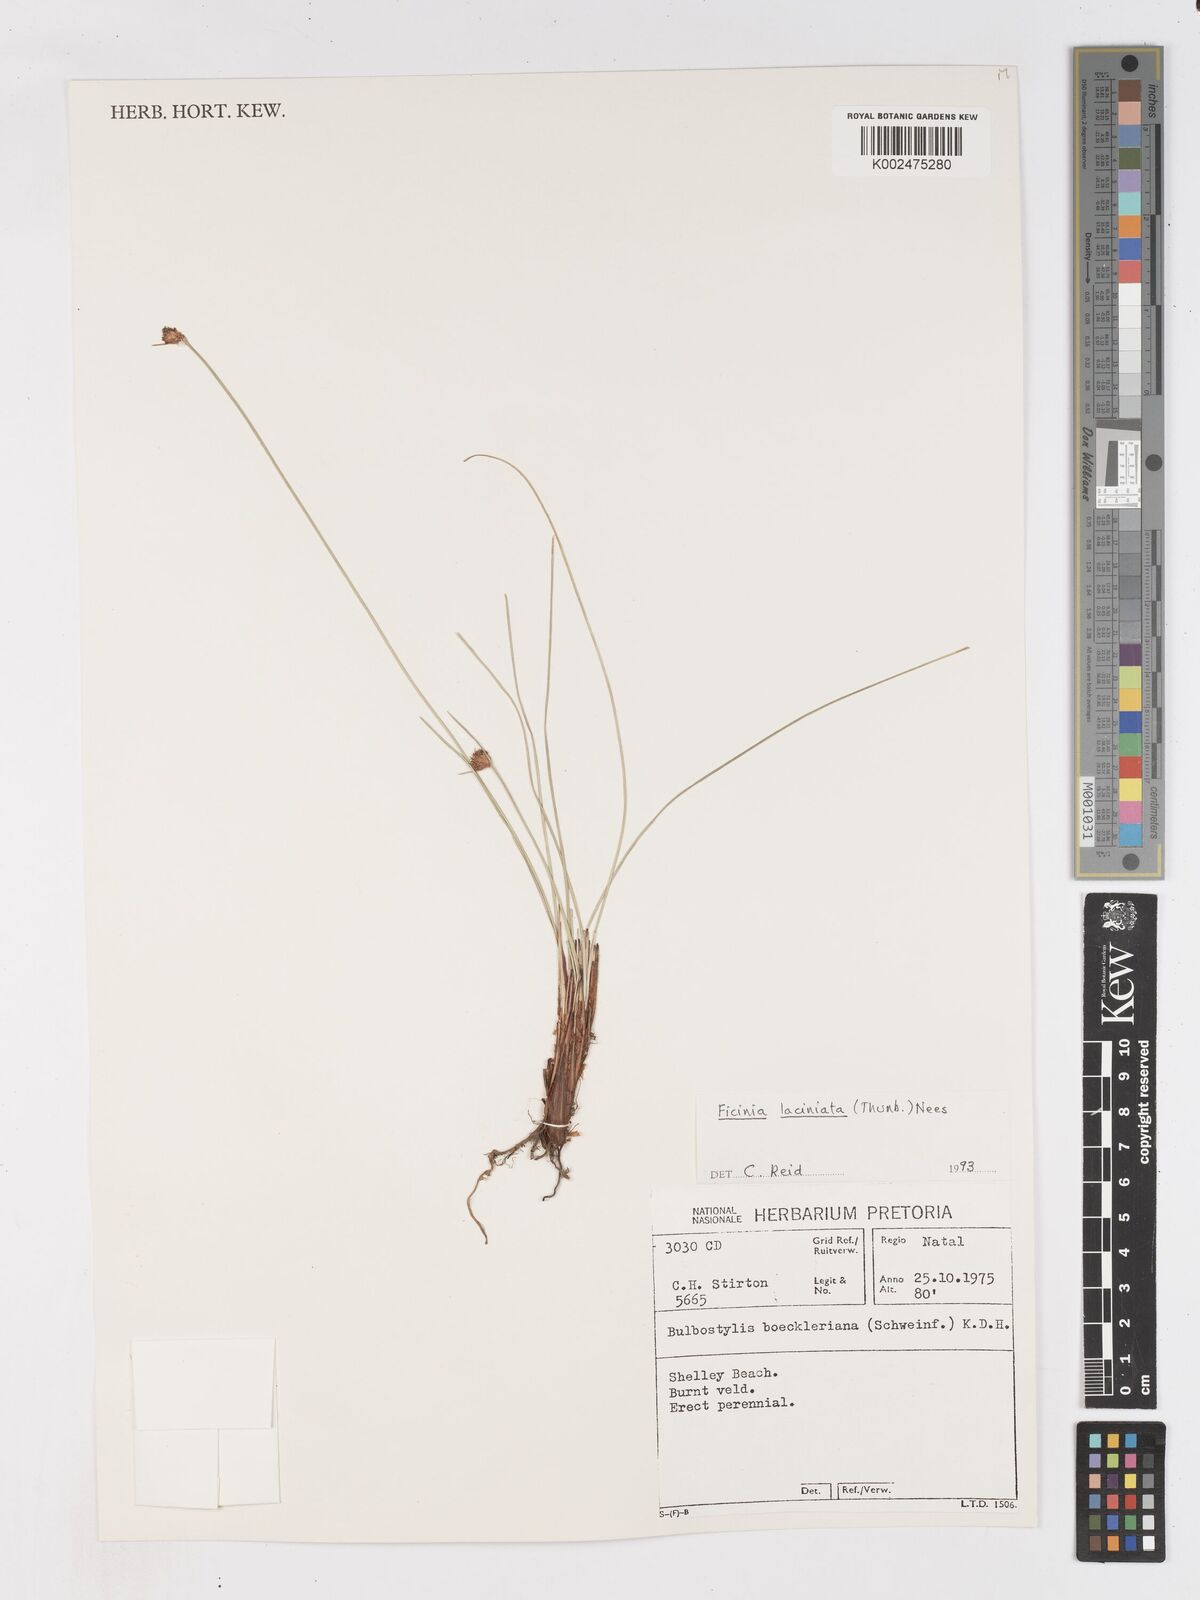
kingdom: Plantae
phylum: Tracheophyta
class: Liliopsida
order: Poales
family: Cyperaceae
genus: Ficinia
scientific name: Ficinia laciniata
